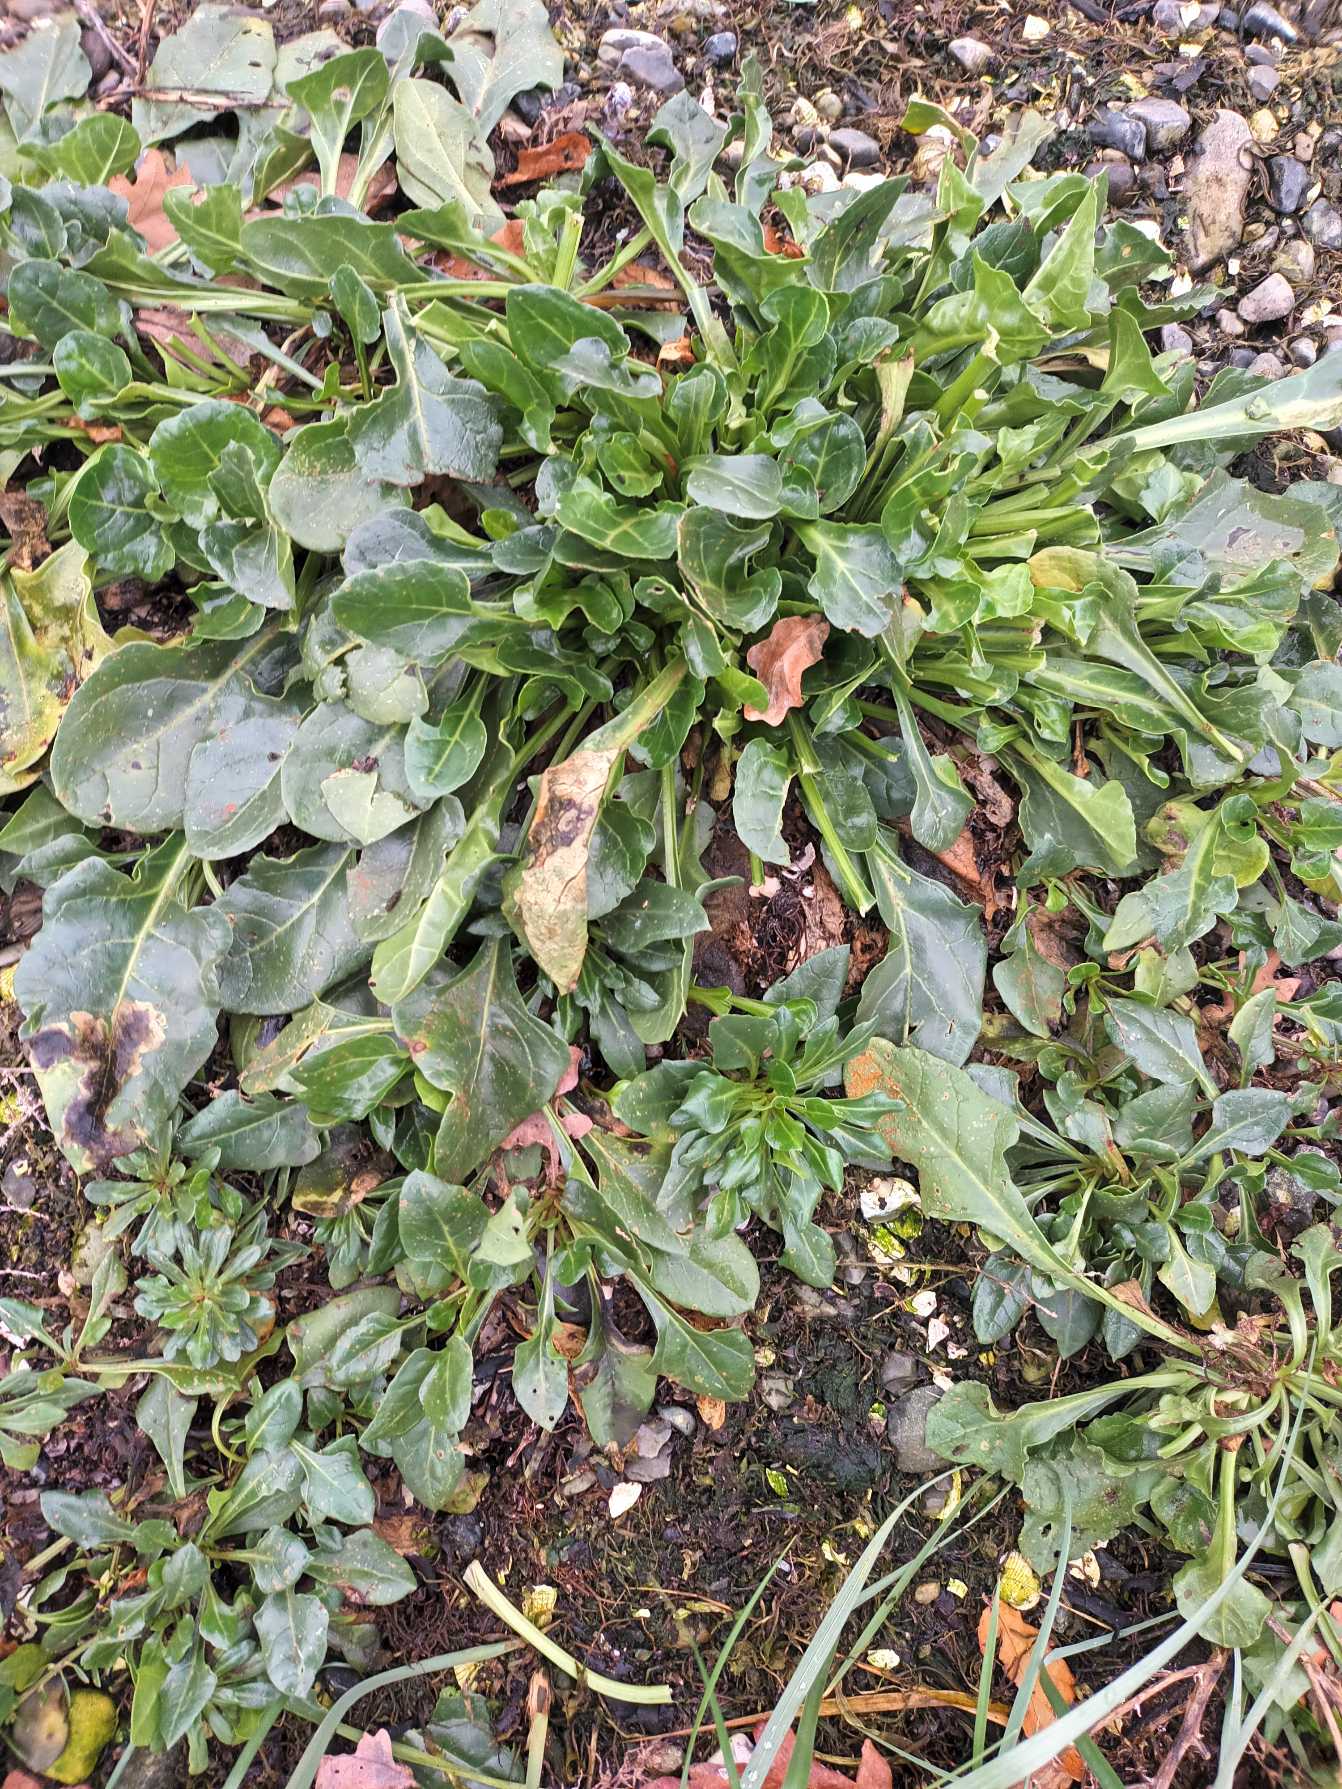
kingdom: Plantae
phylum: Tracheophyta
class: Magnoliopsida
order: Caryophyllales
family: Amaranthaceae
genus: Beta
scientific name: Beta maritima
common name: Strand-bede
